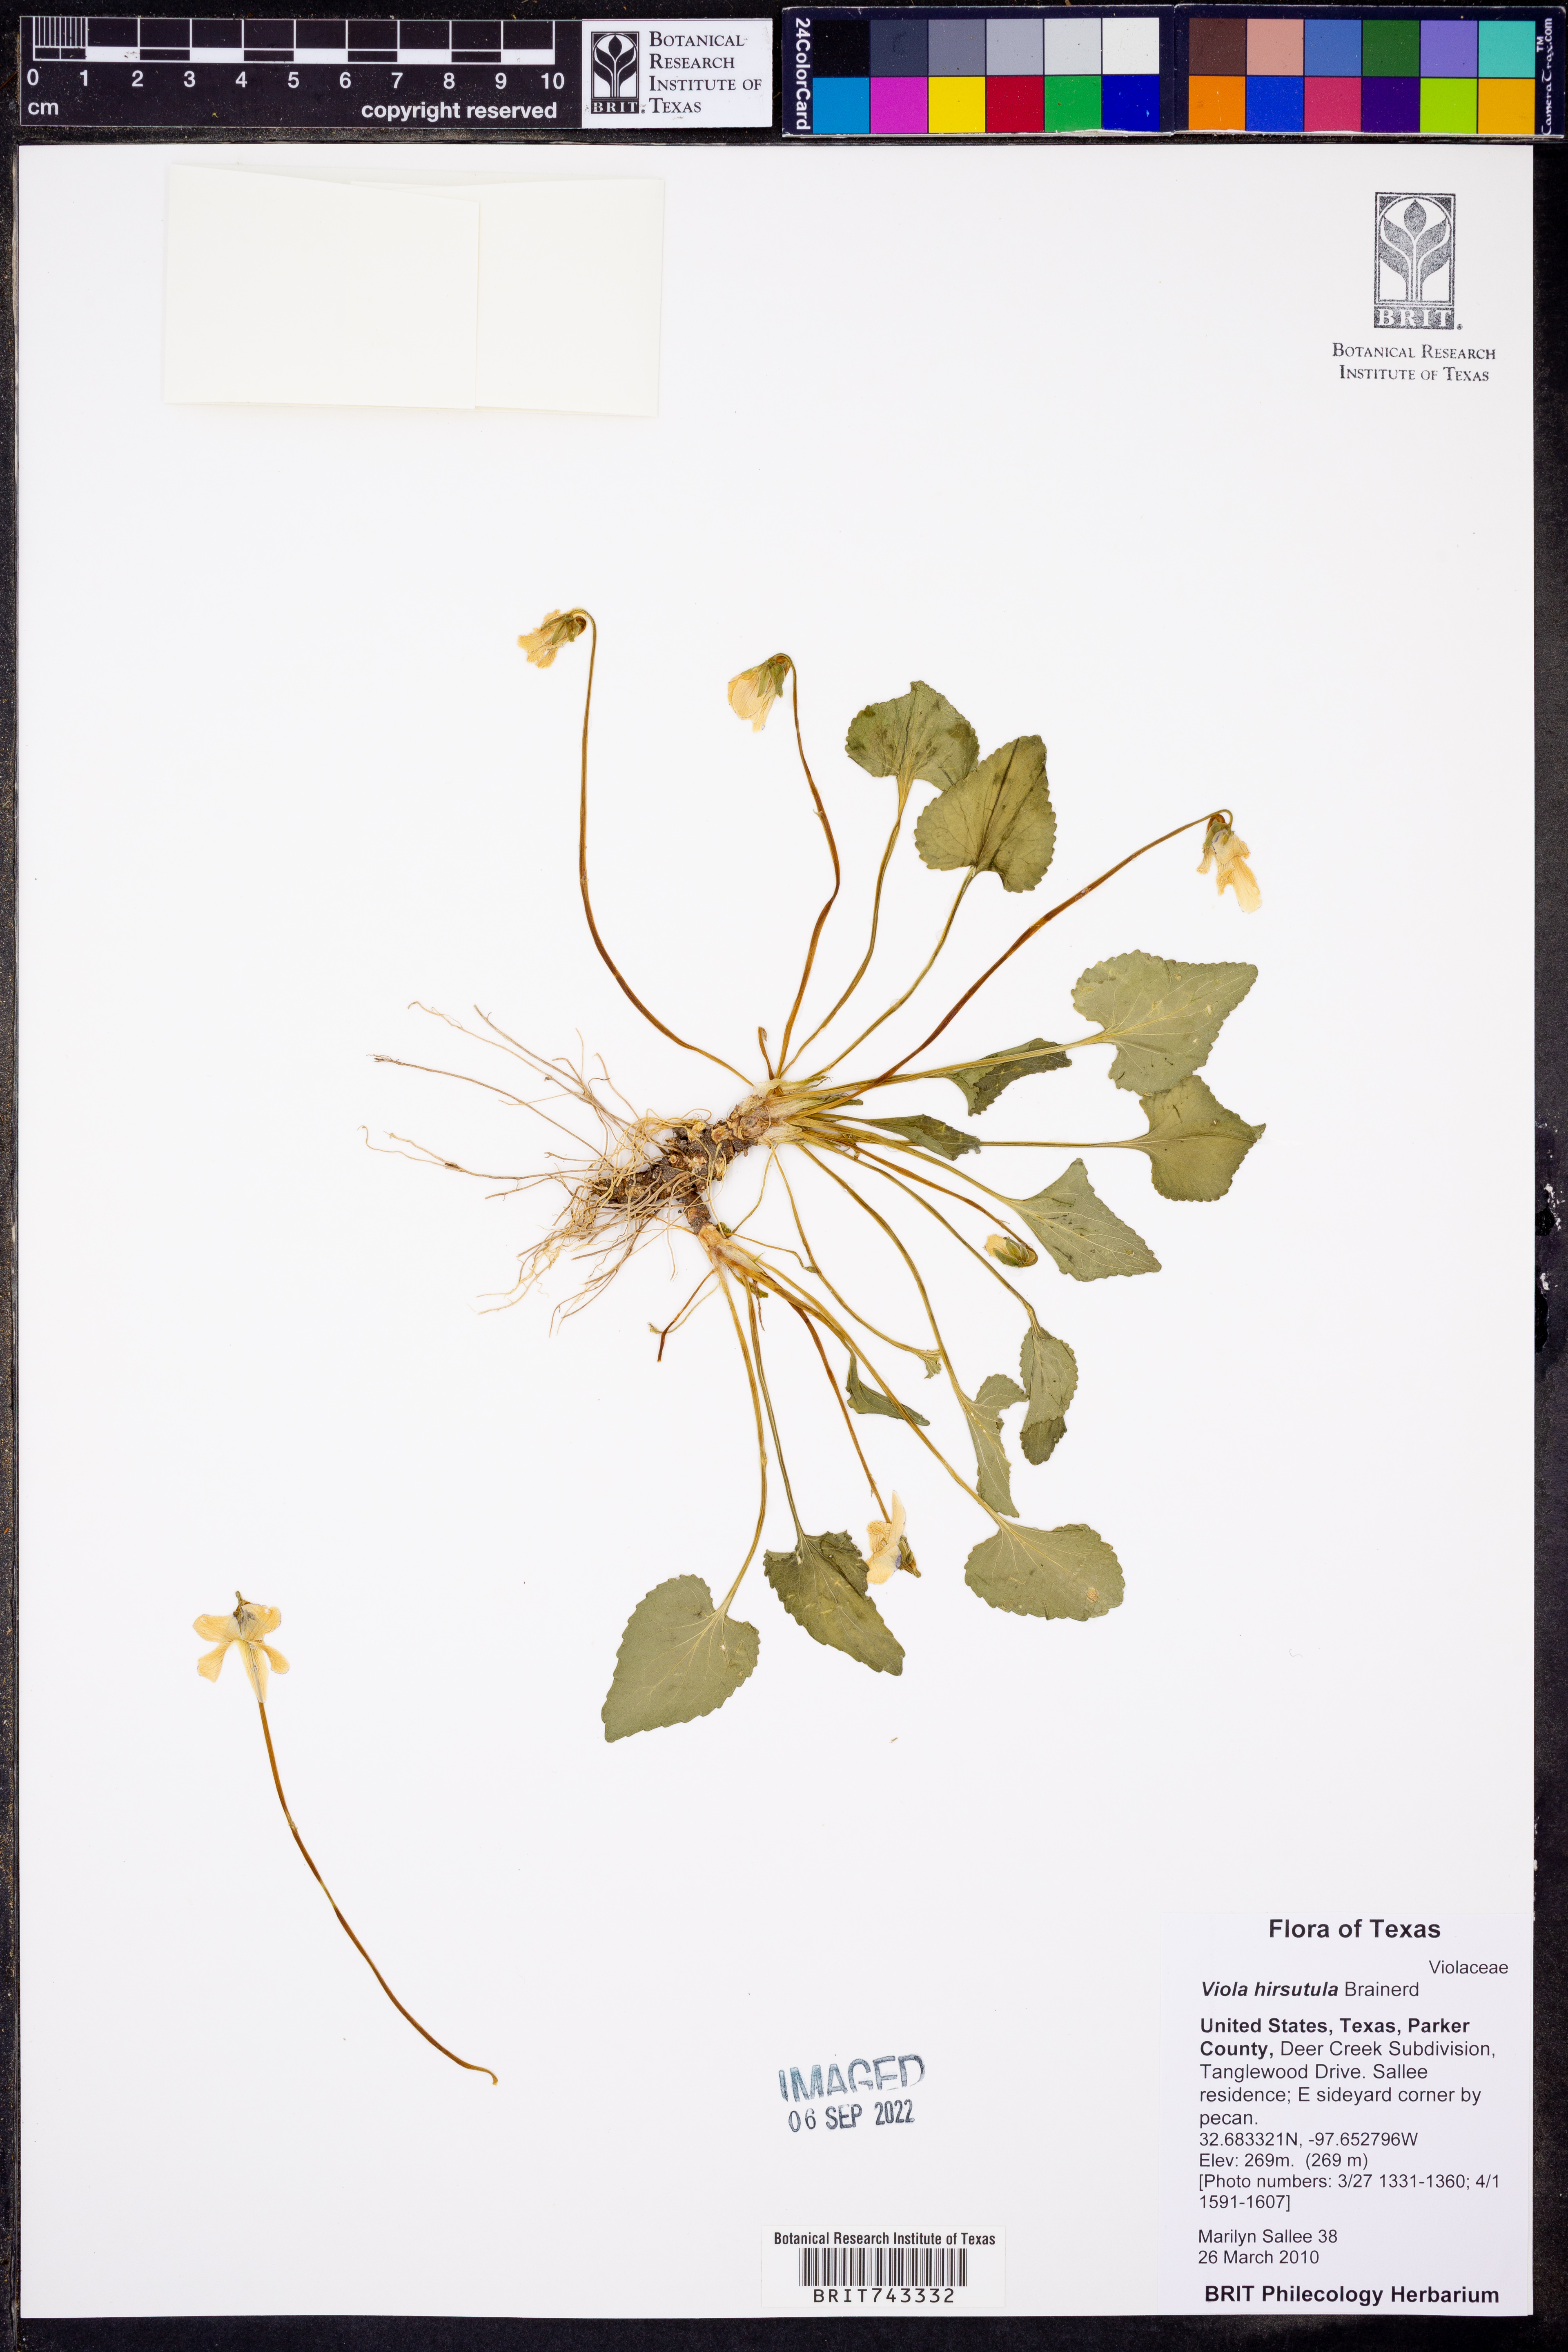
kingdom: Plantae
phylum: Tracheophyta
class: Magnoliopsida
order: Malpighiales
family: Violaceae
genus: Viola
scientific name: Viola hirsutula
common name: Southern wood violet
